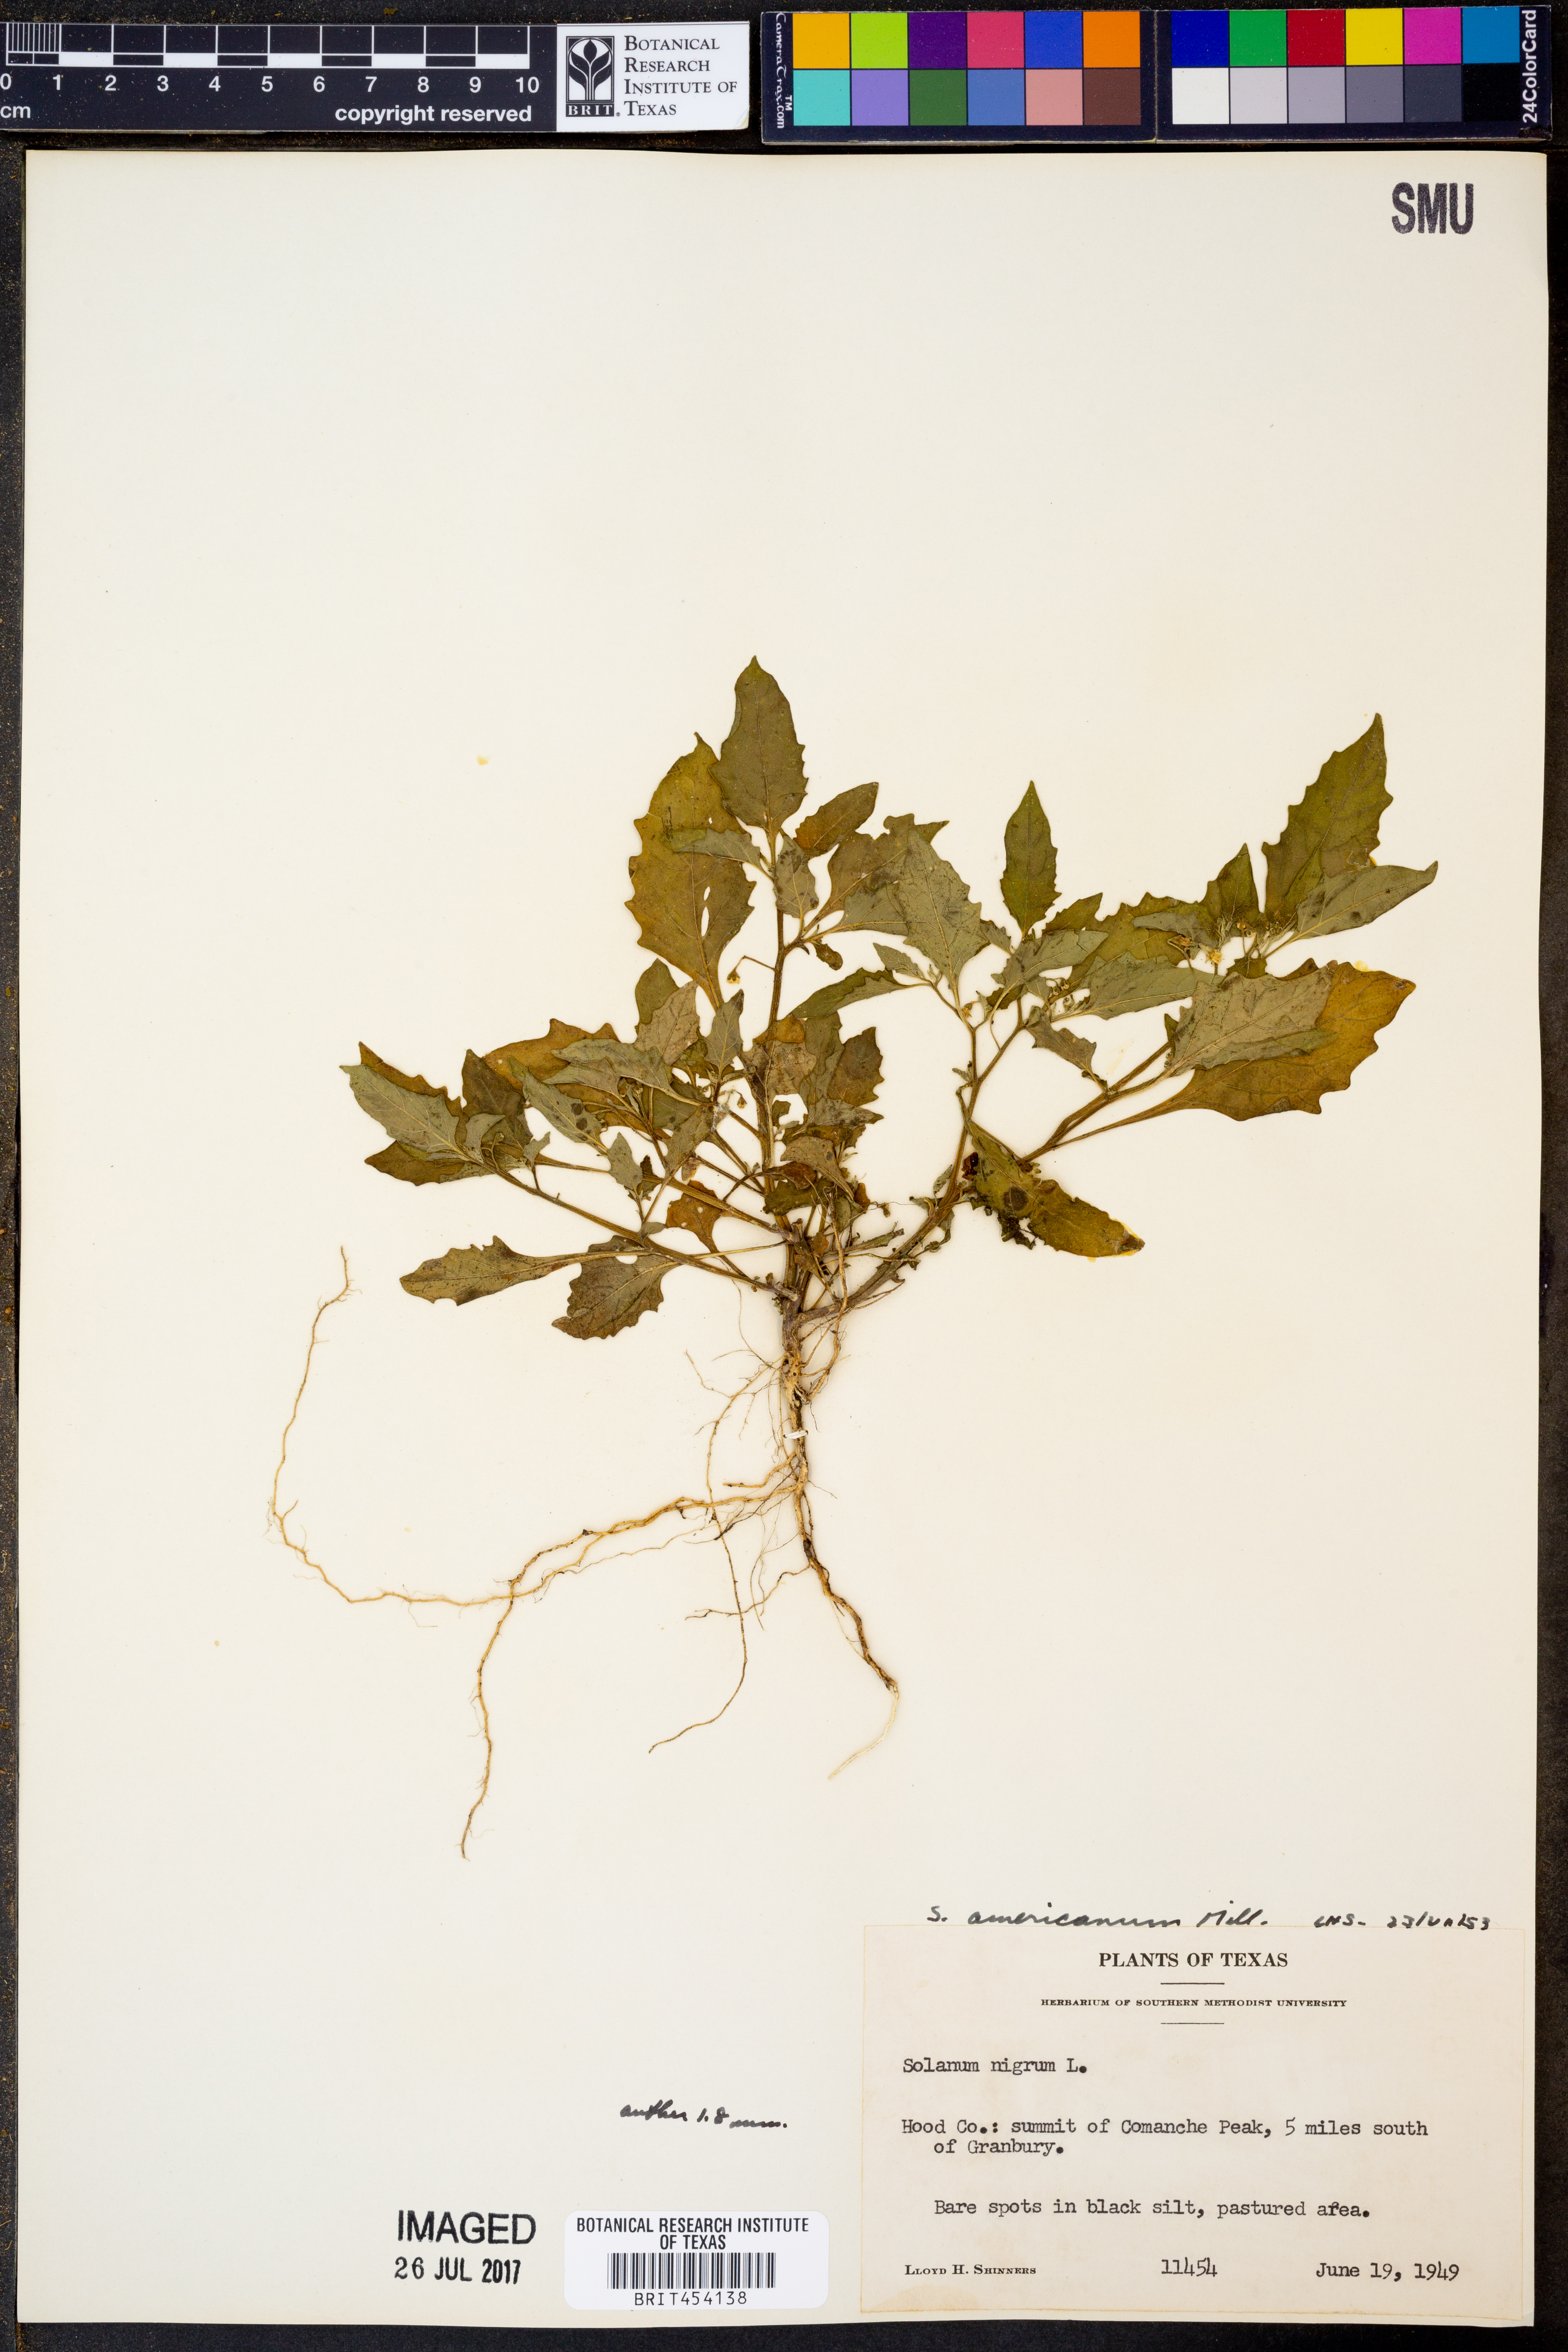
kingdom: Plantae
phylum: Tracheophyta
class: Magnoliopsida
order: Solanales
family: Solanaceae
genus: Solanum
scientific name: Solanum americanum
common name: American black nightshade
